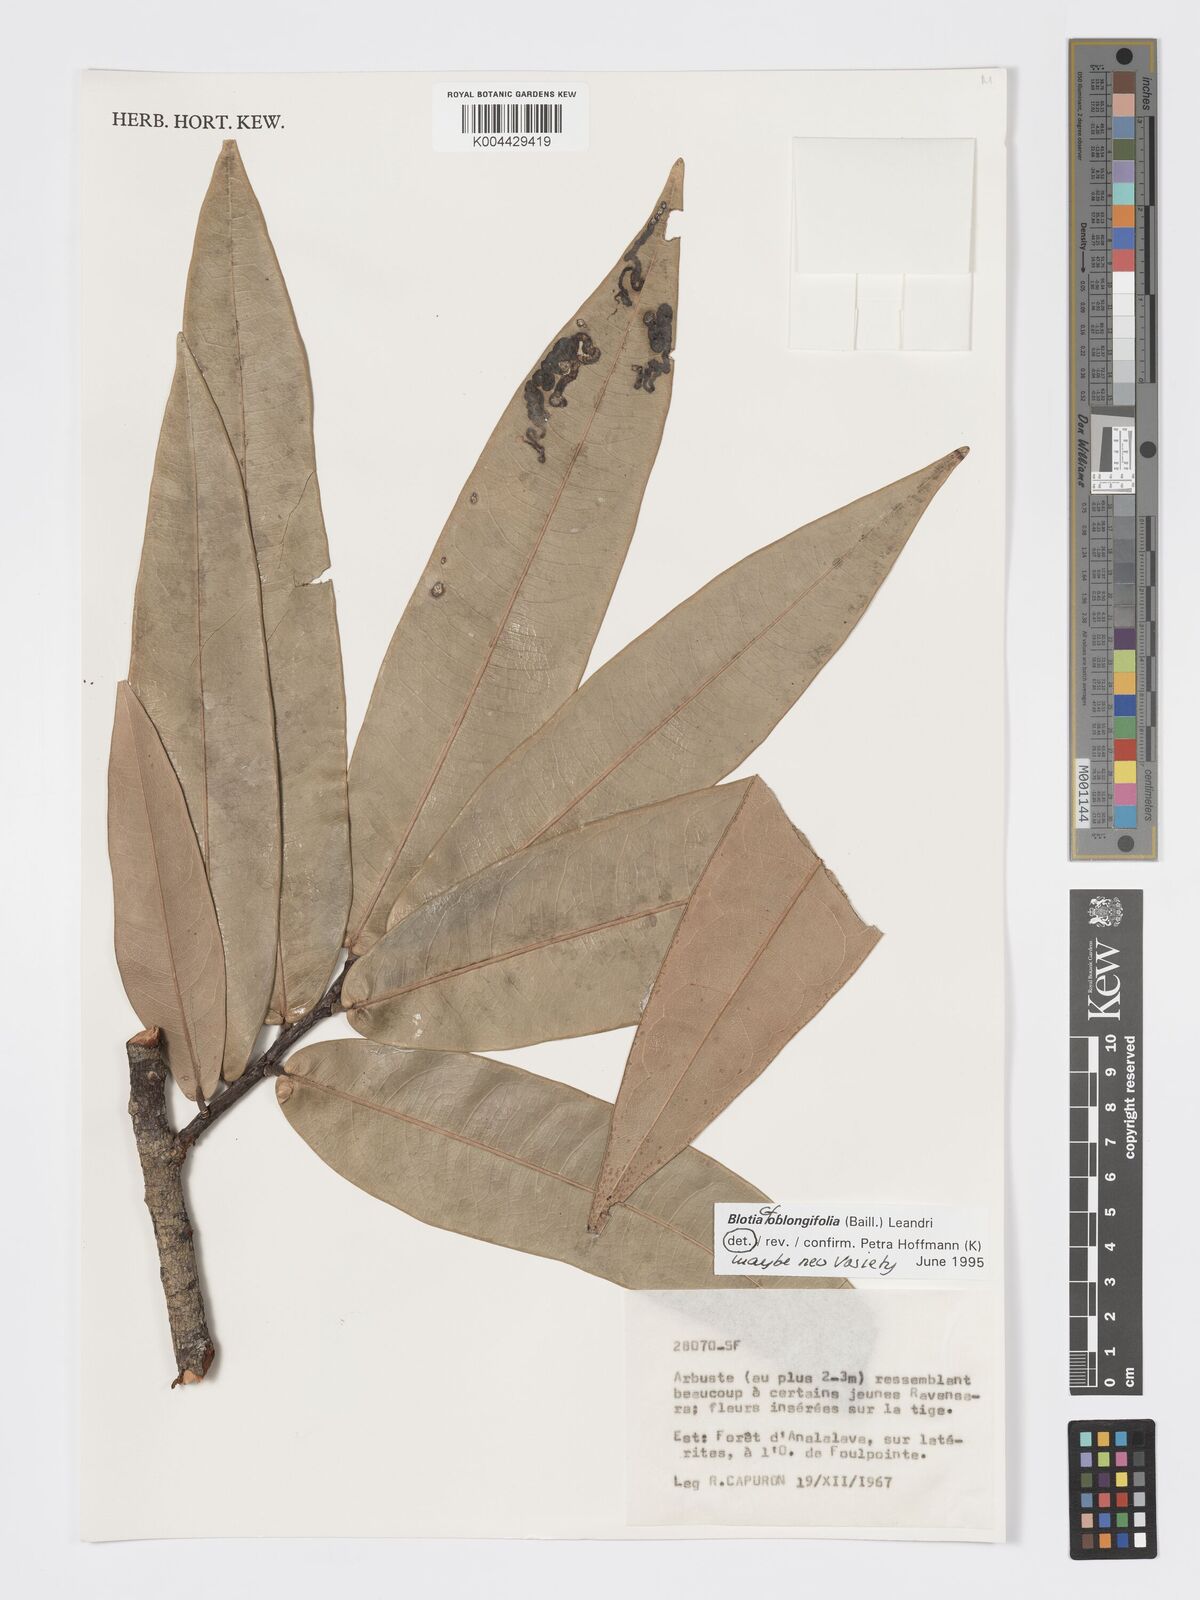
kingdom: Plantae
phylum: Tracheophyta
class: Magnoliopsida
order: Malpighiales
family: Phyllanthaceae
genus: Wielandia
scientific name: Wielandia oblongifolia
